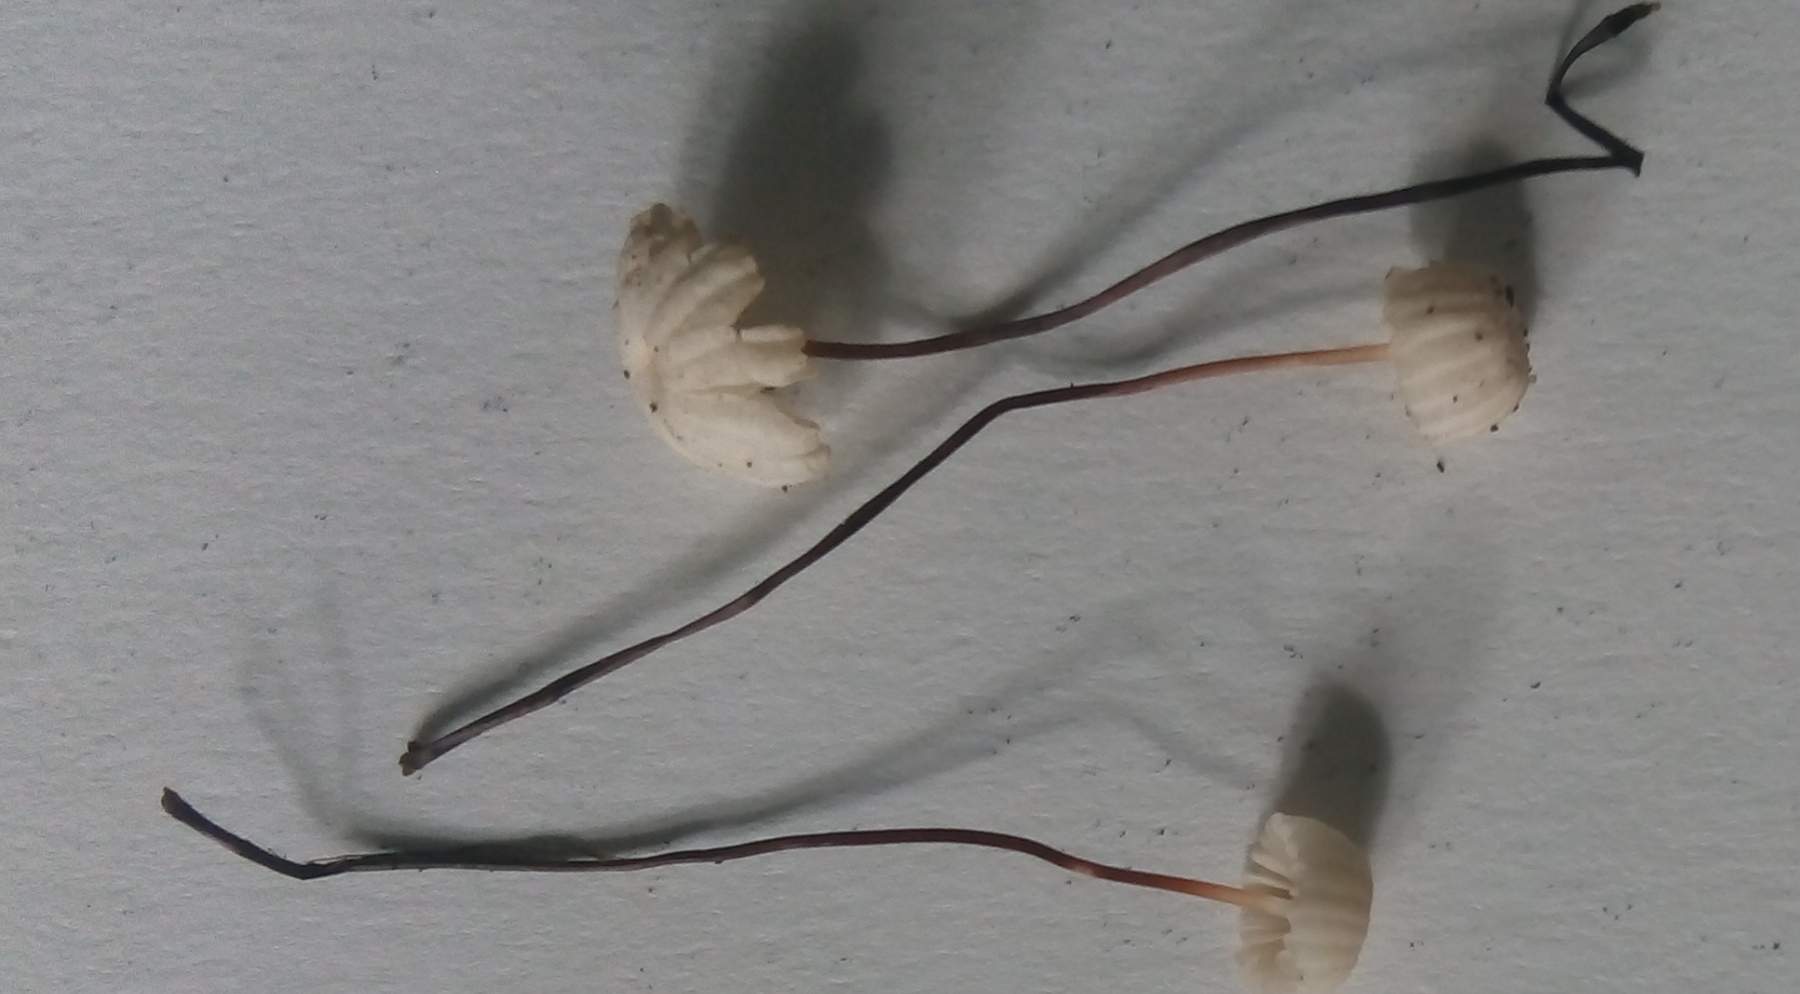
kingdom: Fungi
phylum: Basidiomycota
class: Agaricomycetes
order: Agaricales
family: Marasmiaceae
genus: Marasmius
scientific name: Marasmius rotula
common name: hjul-bruskhat
